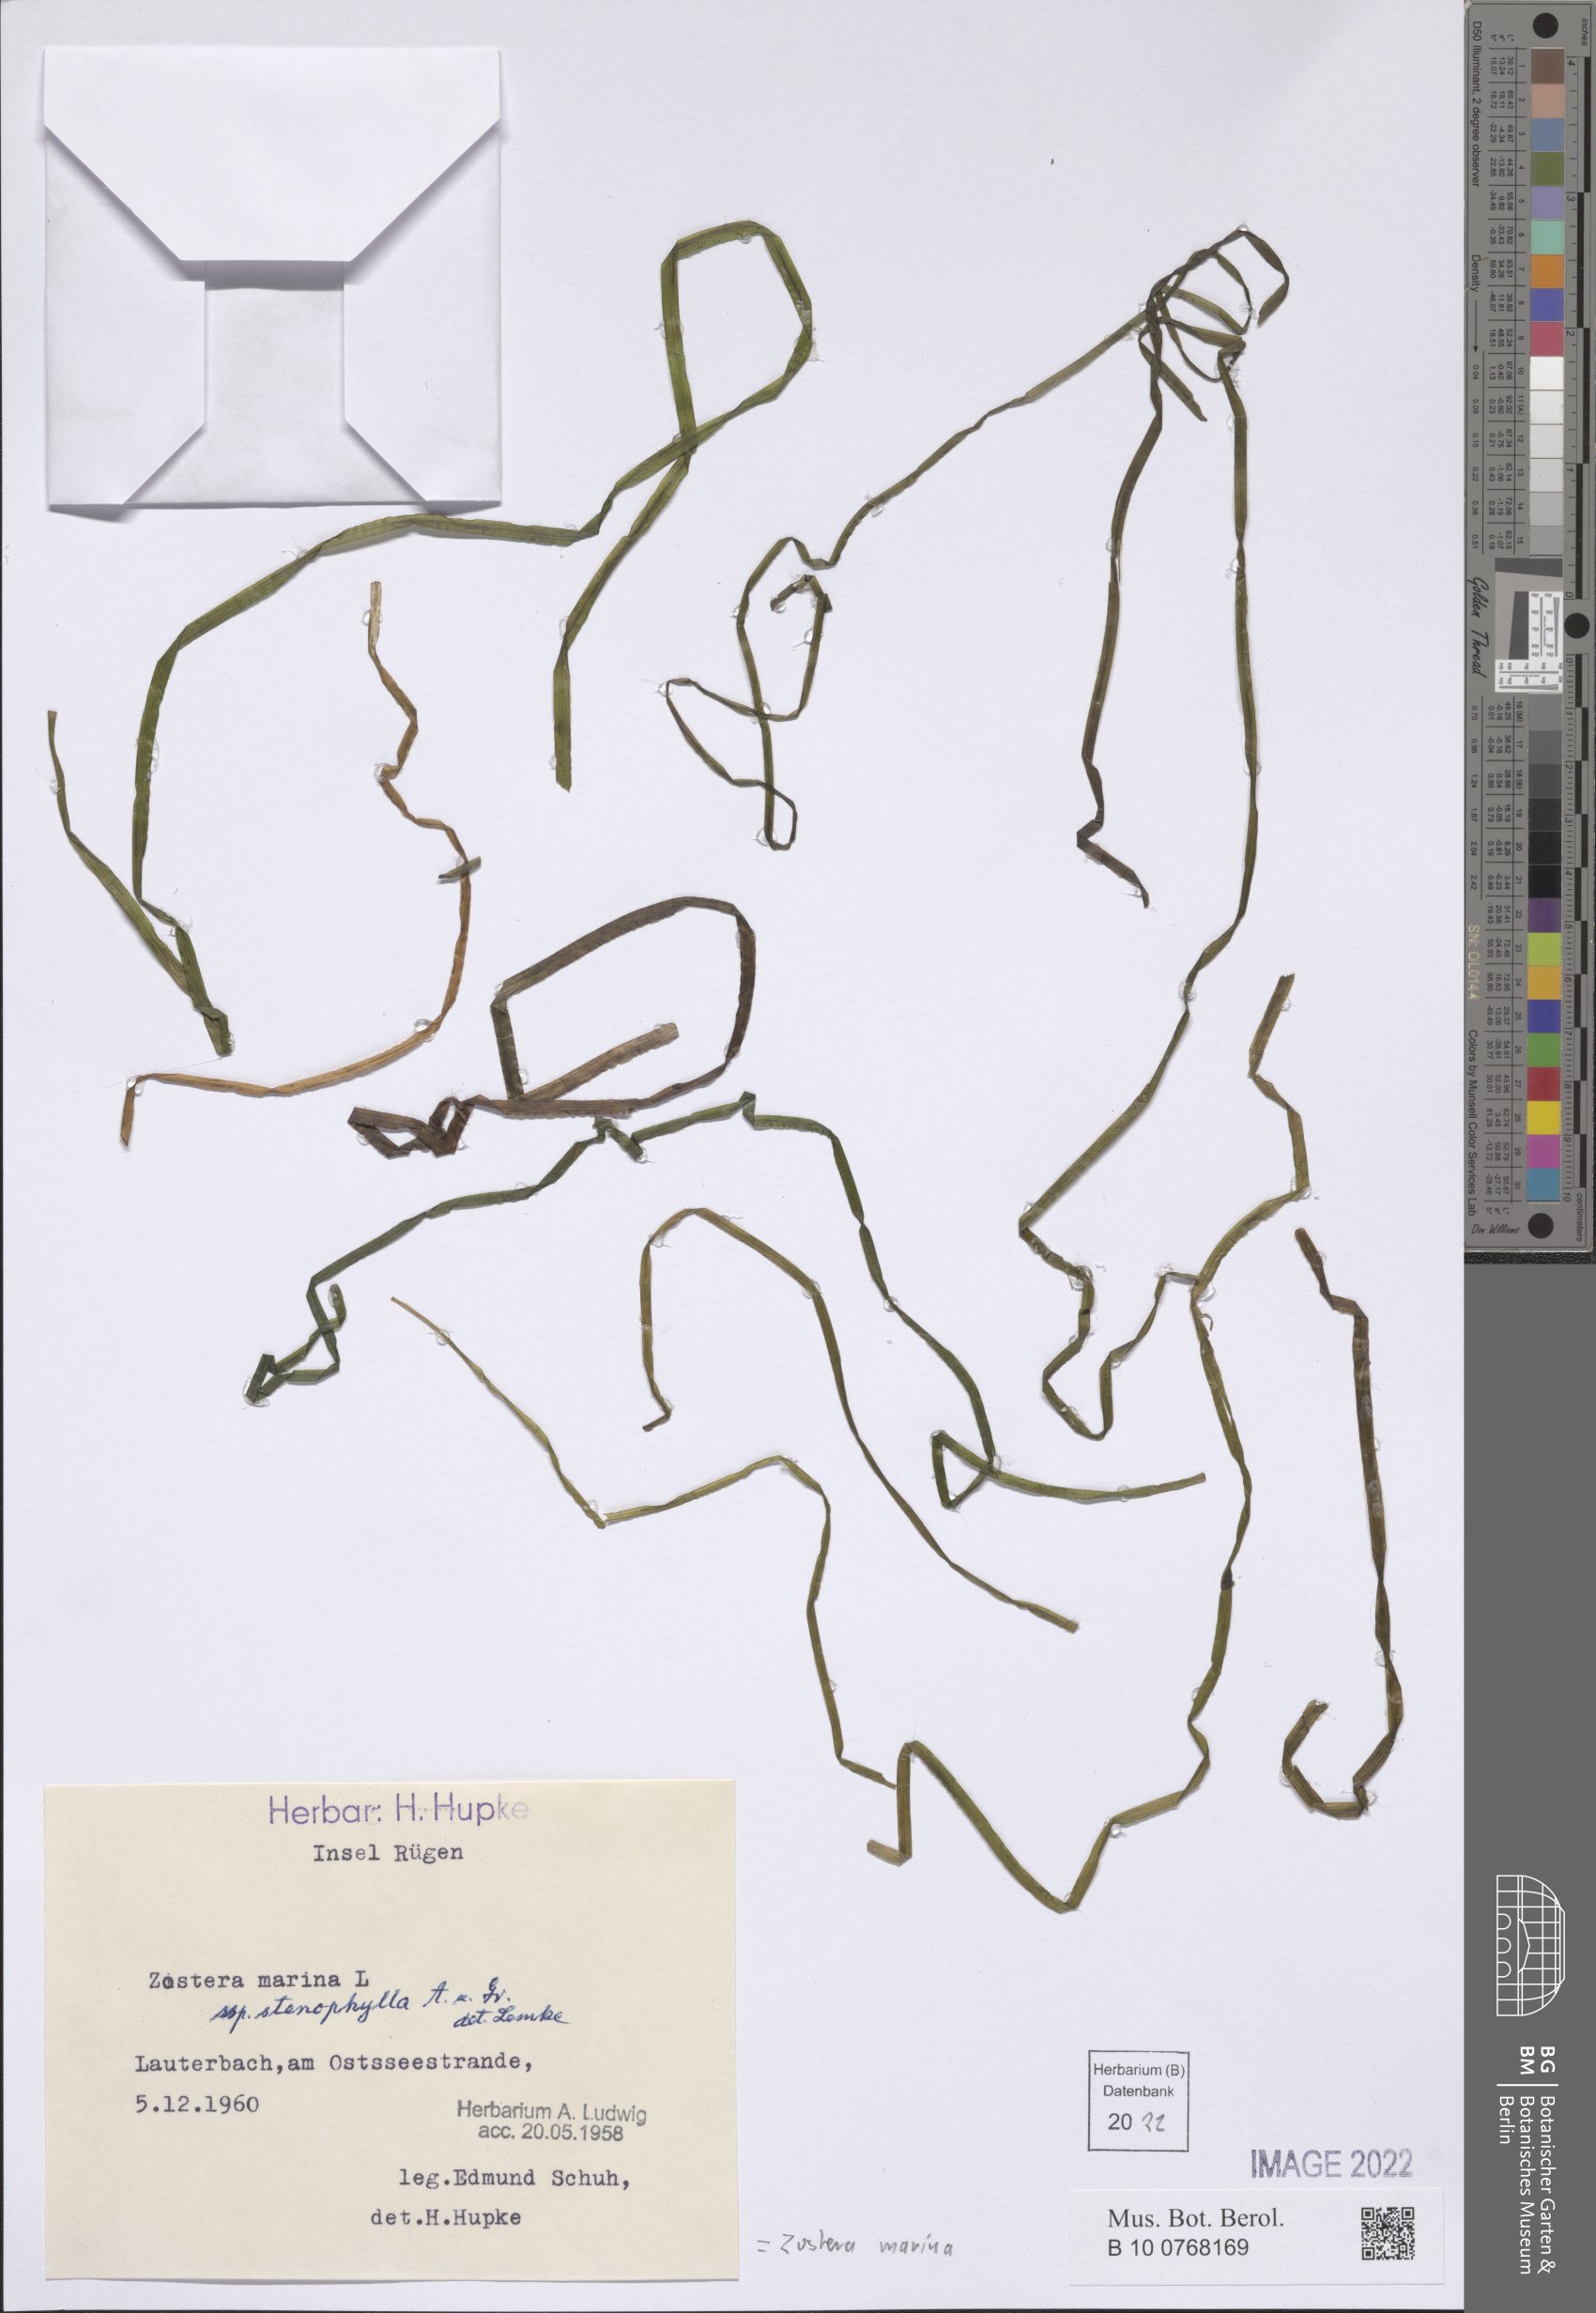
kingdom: Plantae
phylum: Tracheophyta
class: Liliopsida
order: Alismatales
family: Zosteraceae
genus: Zostera
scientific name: Zostera marina
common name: Eelgrass
